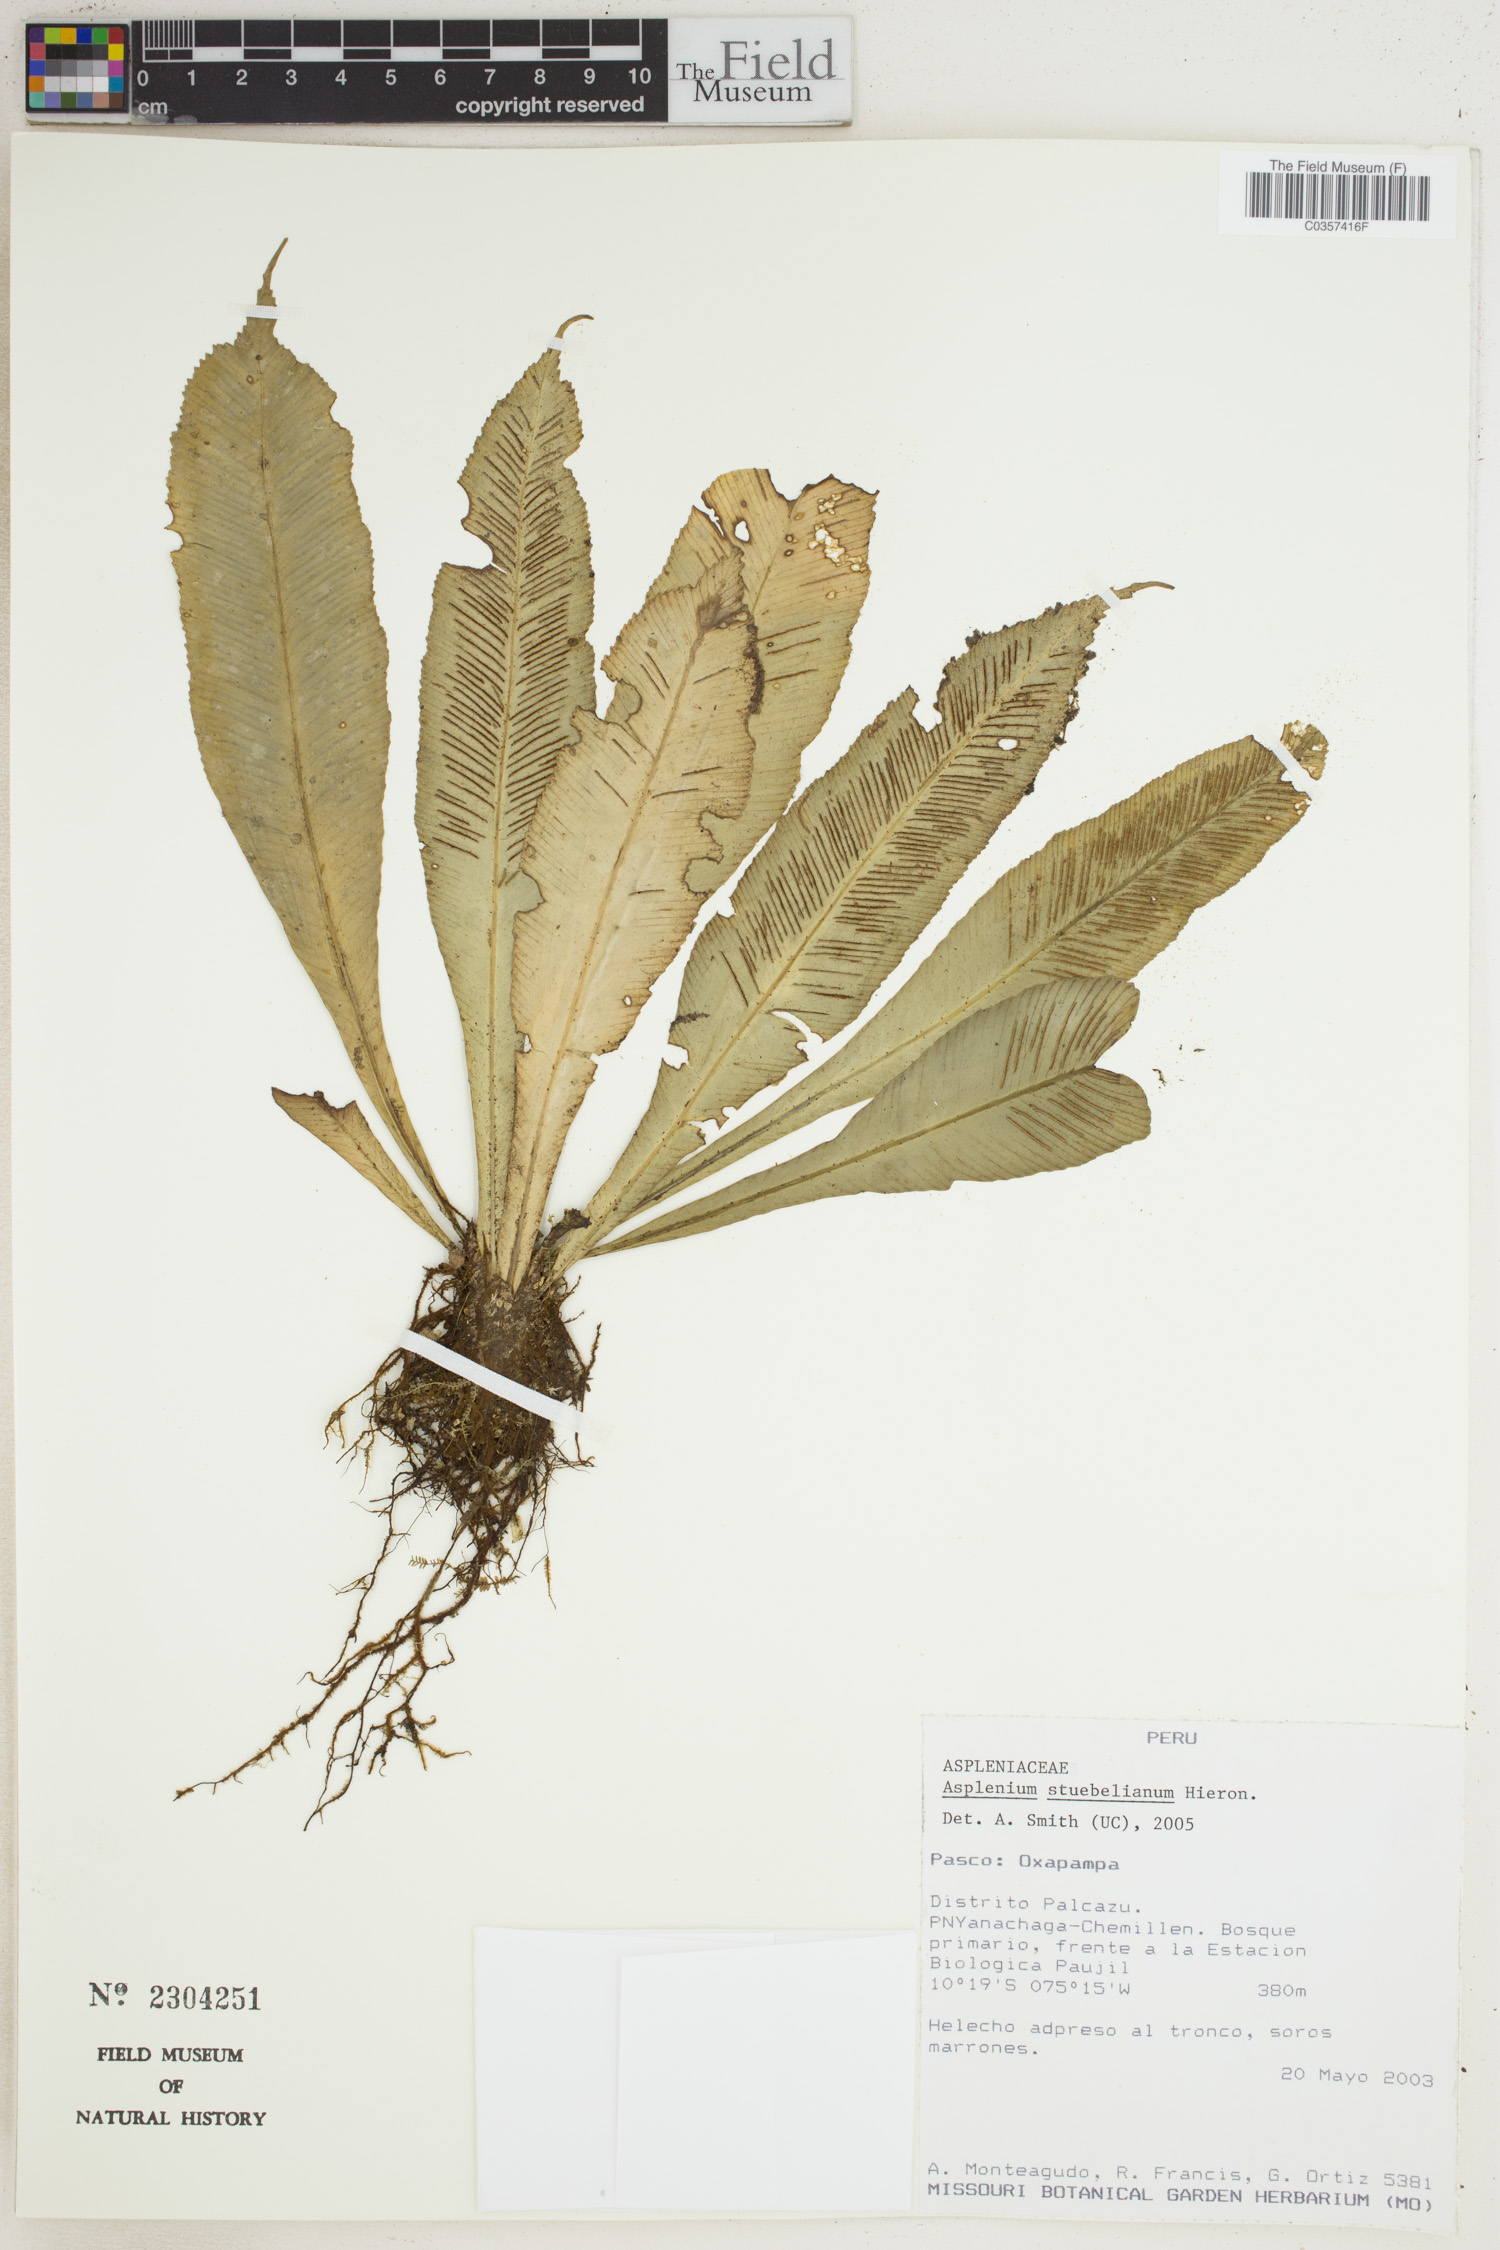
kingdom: Plantae
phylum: Tracheophyta
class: Polypodiopsida
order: Polypodiales
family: Aspleniaceae
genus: Asplenium
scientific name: Asplenium stuebelianum
